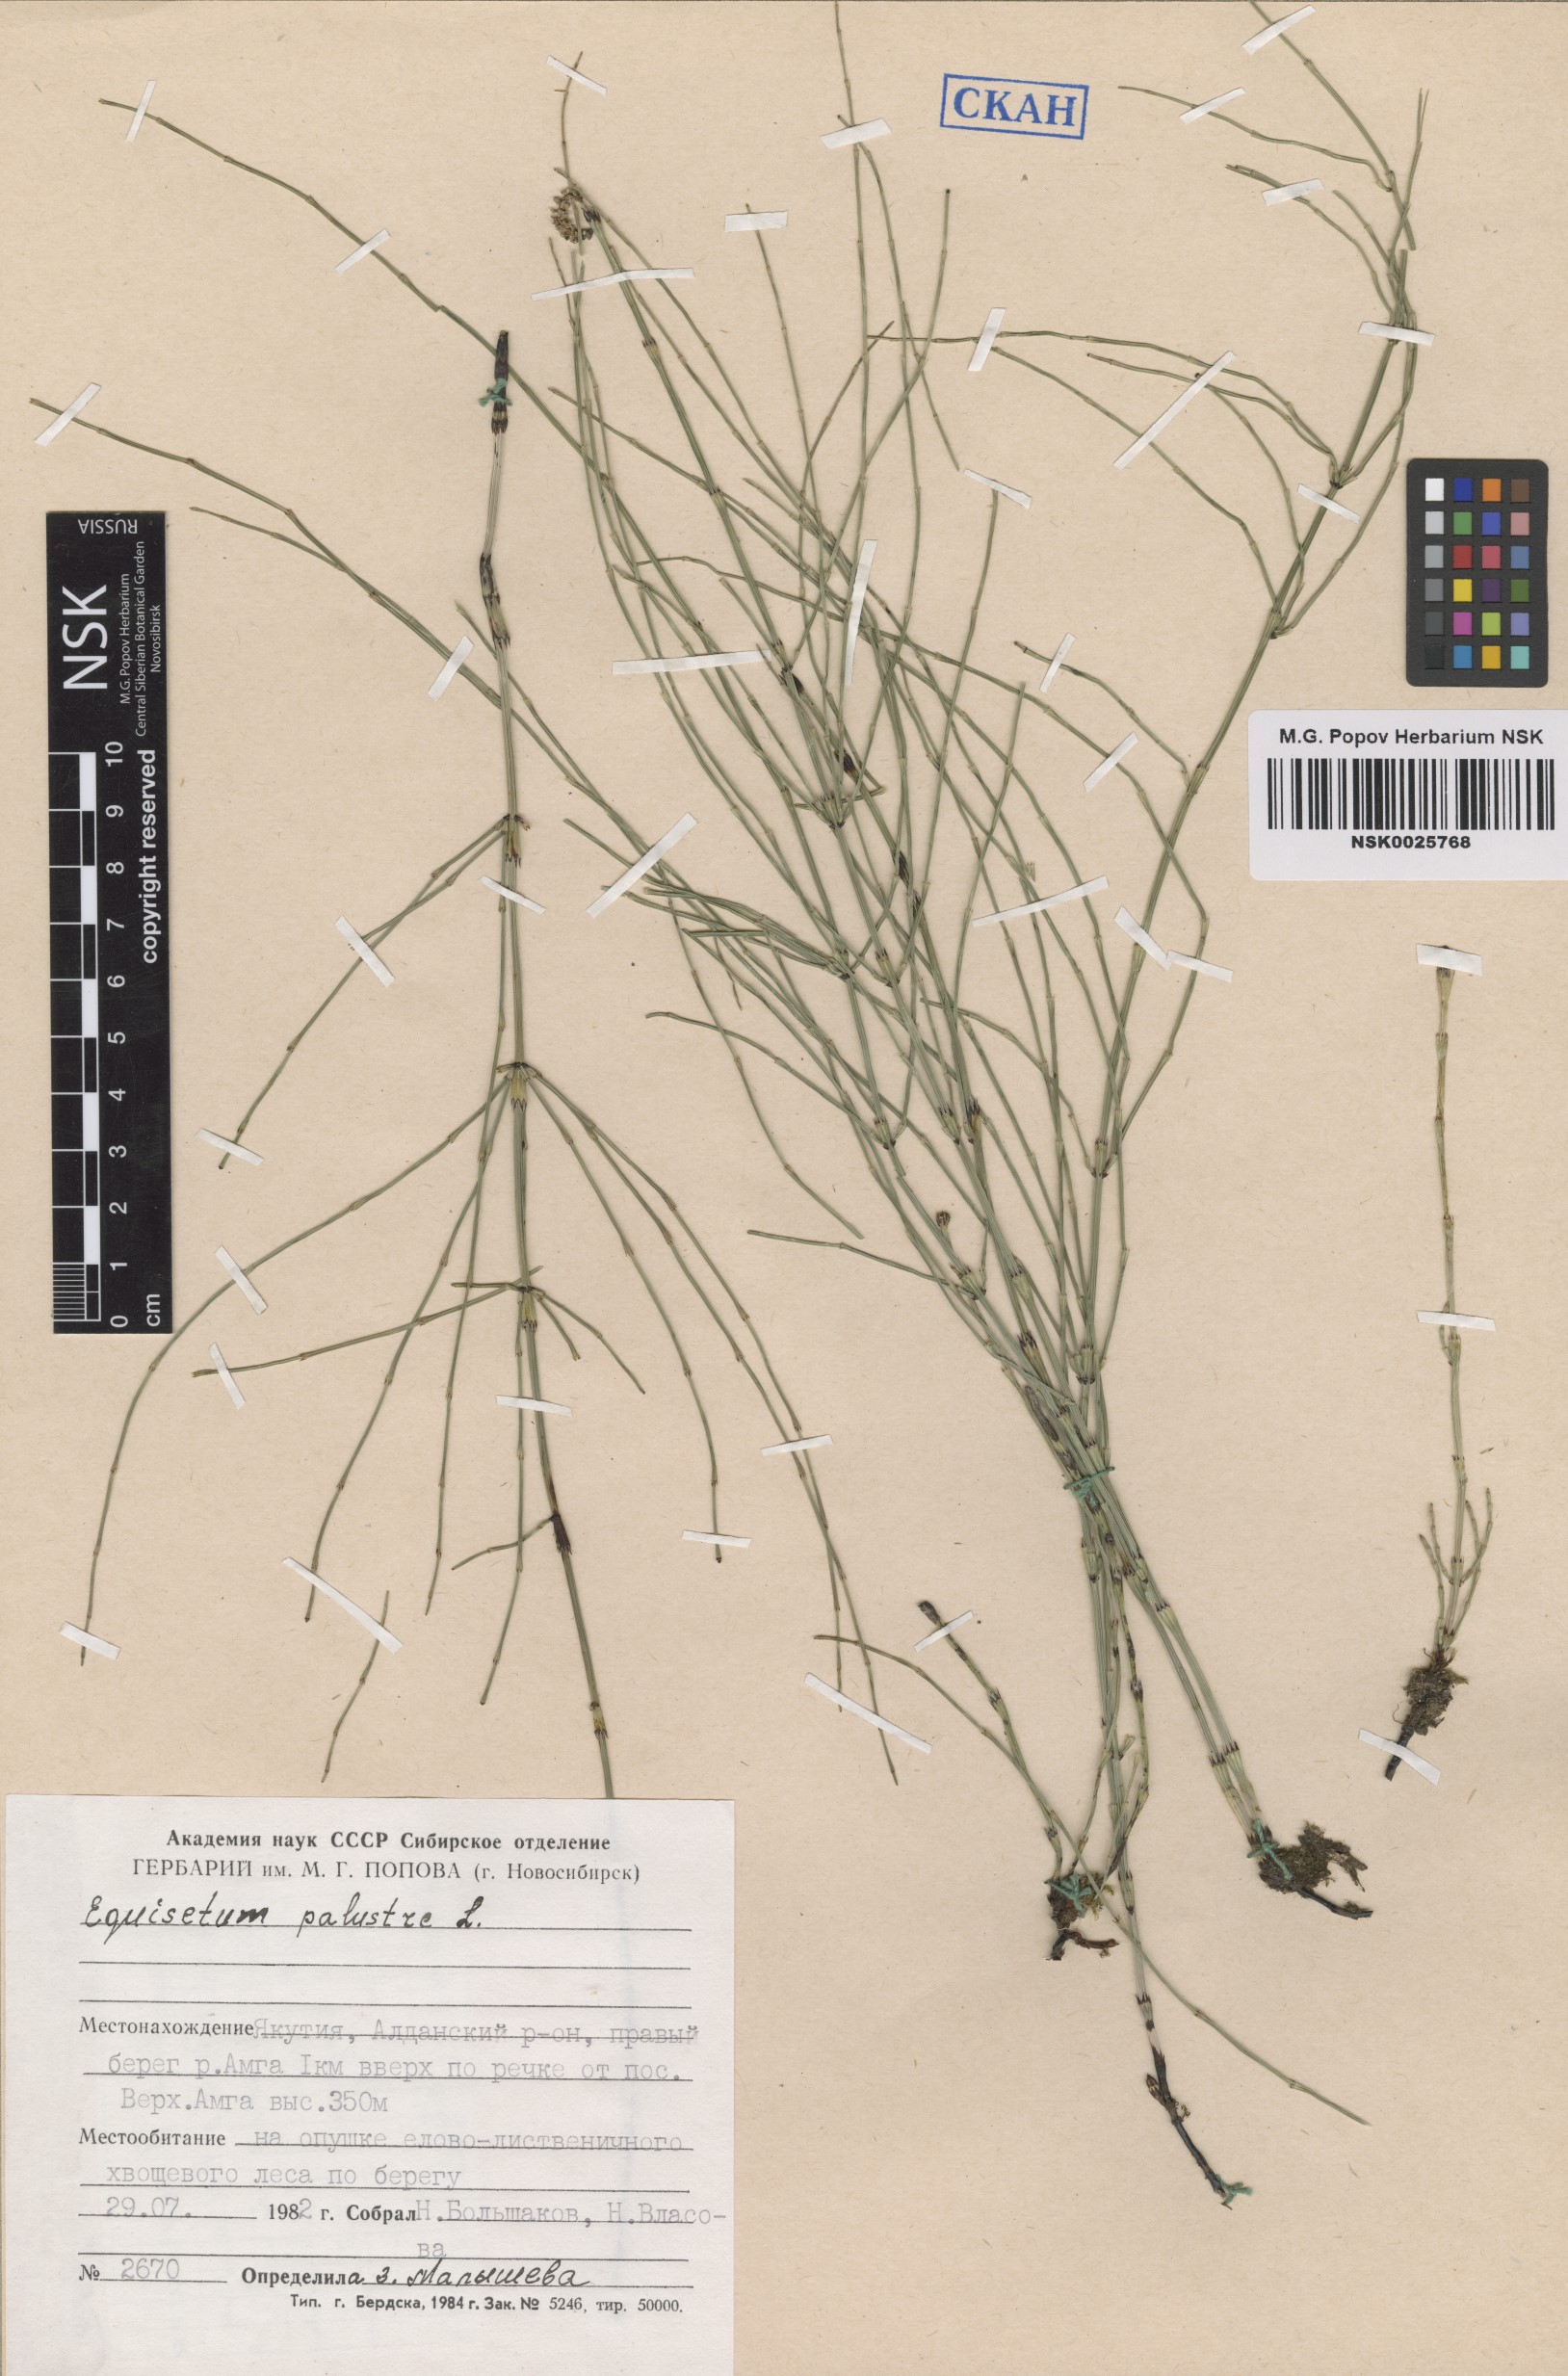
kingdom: Plantae
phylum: Tracheophyta
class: Polypodiopsida
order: Equisetales
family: Equisetaceae
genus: Equisetum
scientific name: Equisetum palustre
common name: Marsh horsetail
